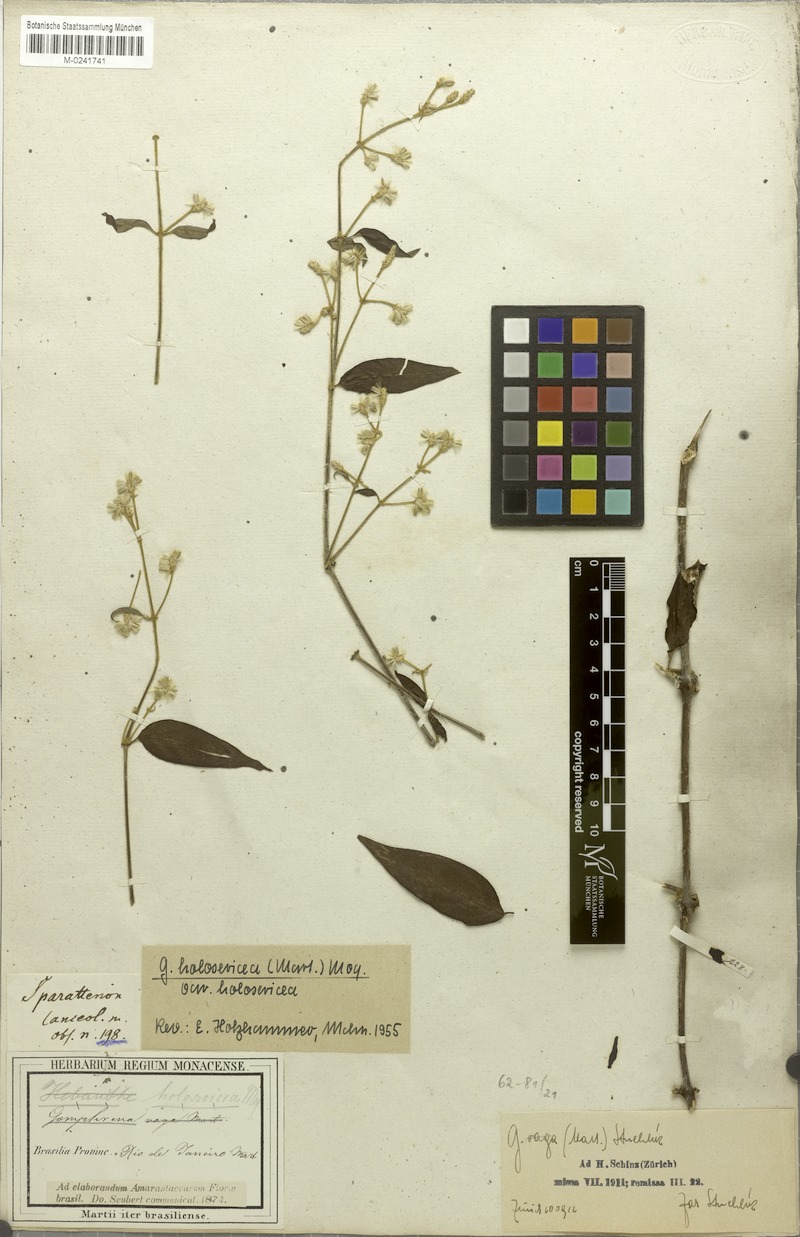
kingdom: Plantae
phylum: Tracheophyta
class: Magnoliopsida
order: Caryophyllales
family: Amaranthaceae
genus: Gomphrena
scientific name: Gomphrena vaga
